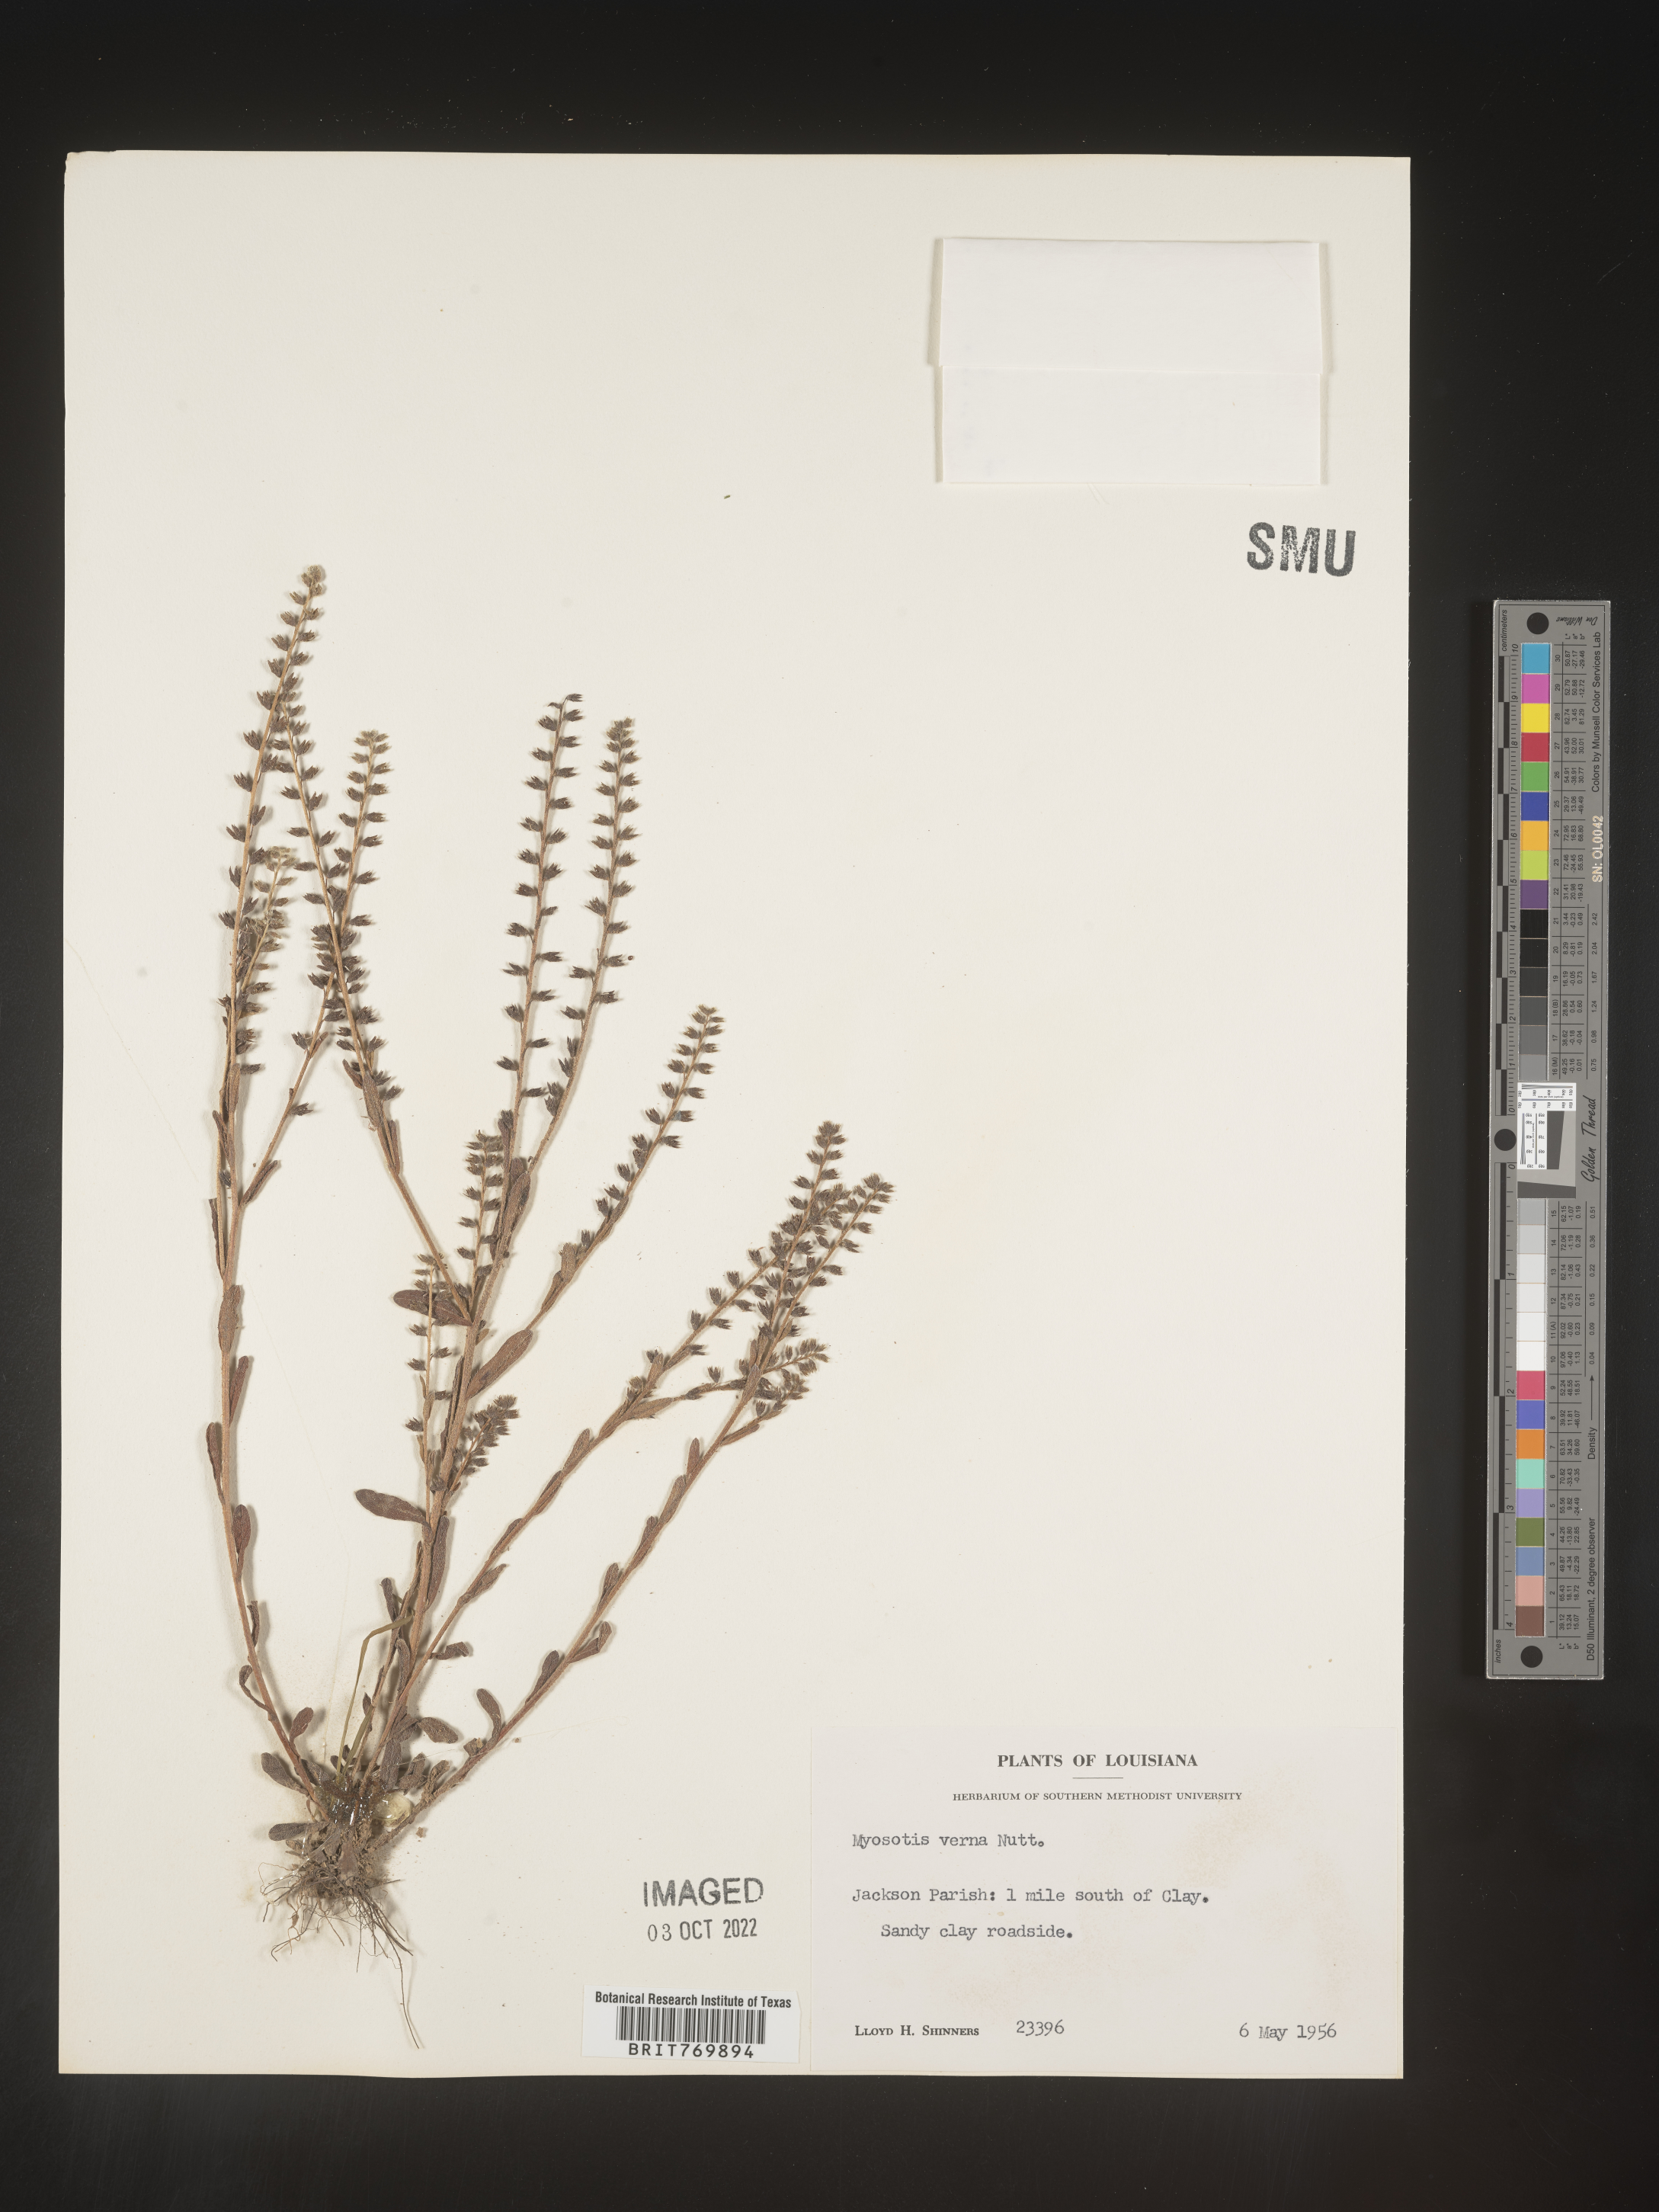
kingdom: Plantae
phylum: Tracheophyta
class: Magnoliopsida
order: Boraginales
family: Boraginaceae
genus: Myosotis
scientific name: Myosotis verna
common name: Early forget-me-not
